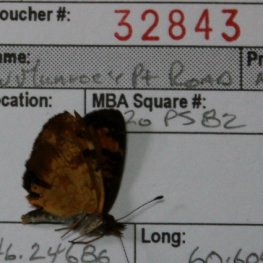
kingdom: Animalia
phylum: Arthropoda
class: Insecta
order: Lepidoptera
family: Nymphalidae
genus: Phyciodes
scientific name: Phyciodes tharos
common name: Northern Crescent
